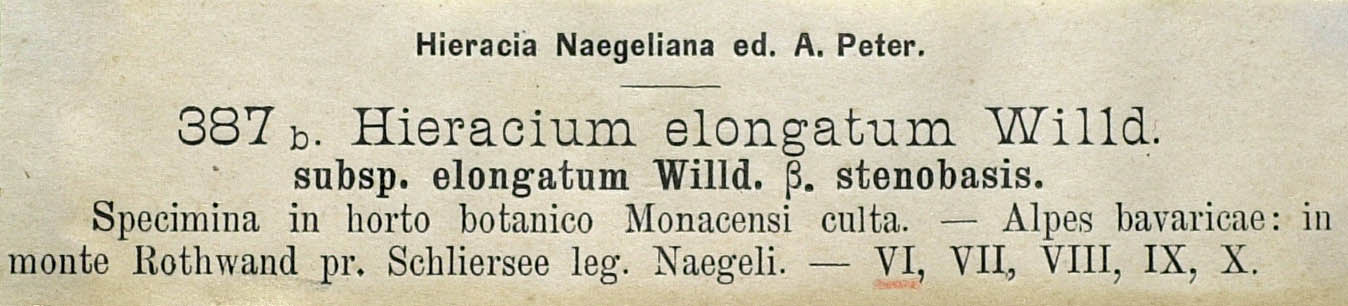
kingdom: Plantae
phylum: Tracheophyta
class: Magnoliopsida
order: Asterales
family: Asteraceae
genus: Hieracium
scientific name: Hieracium valdepilosum
